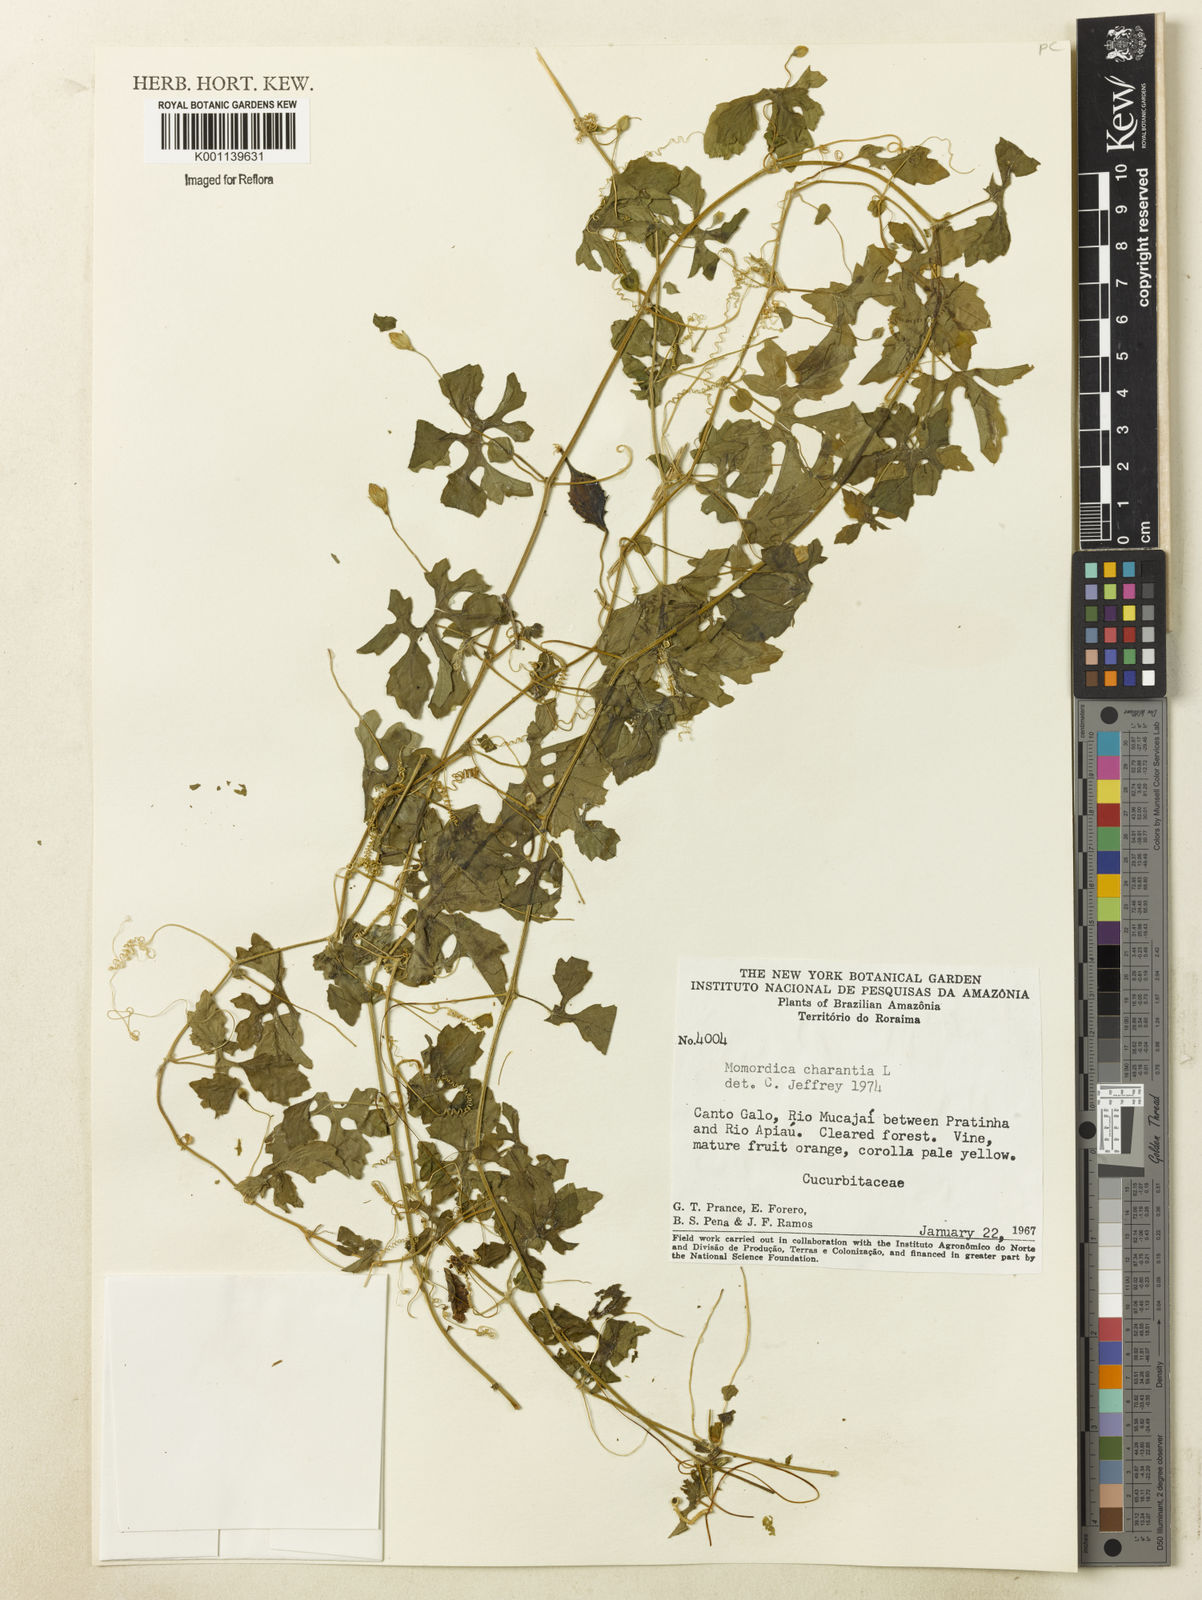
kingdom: Plantae
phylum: Tracheophyta
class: Magnoliopsida
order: Cucurbitales
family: Cucurbitaceae
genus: Momordica
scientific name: Momordica charantia
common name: Balsampear
